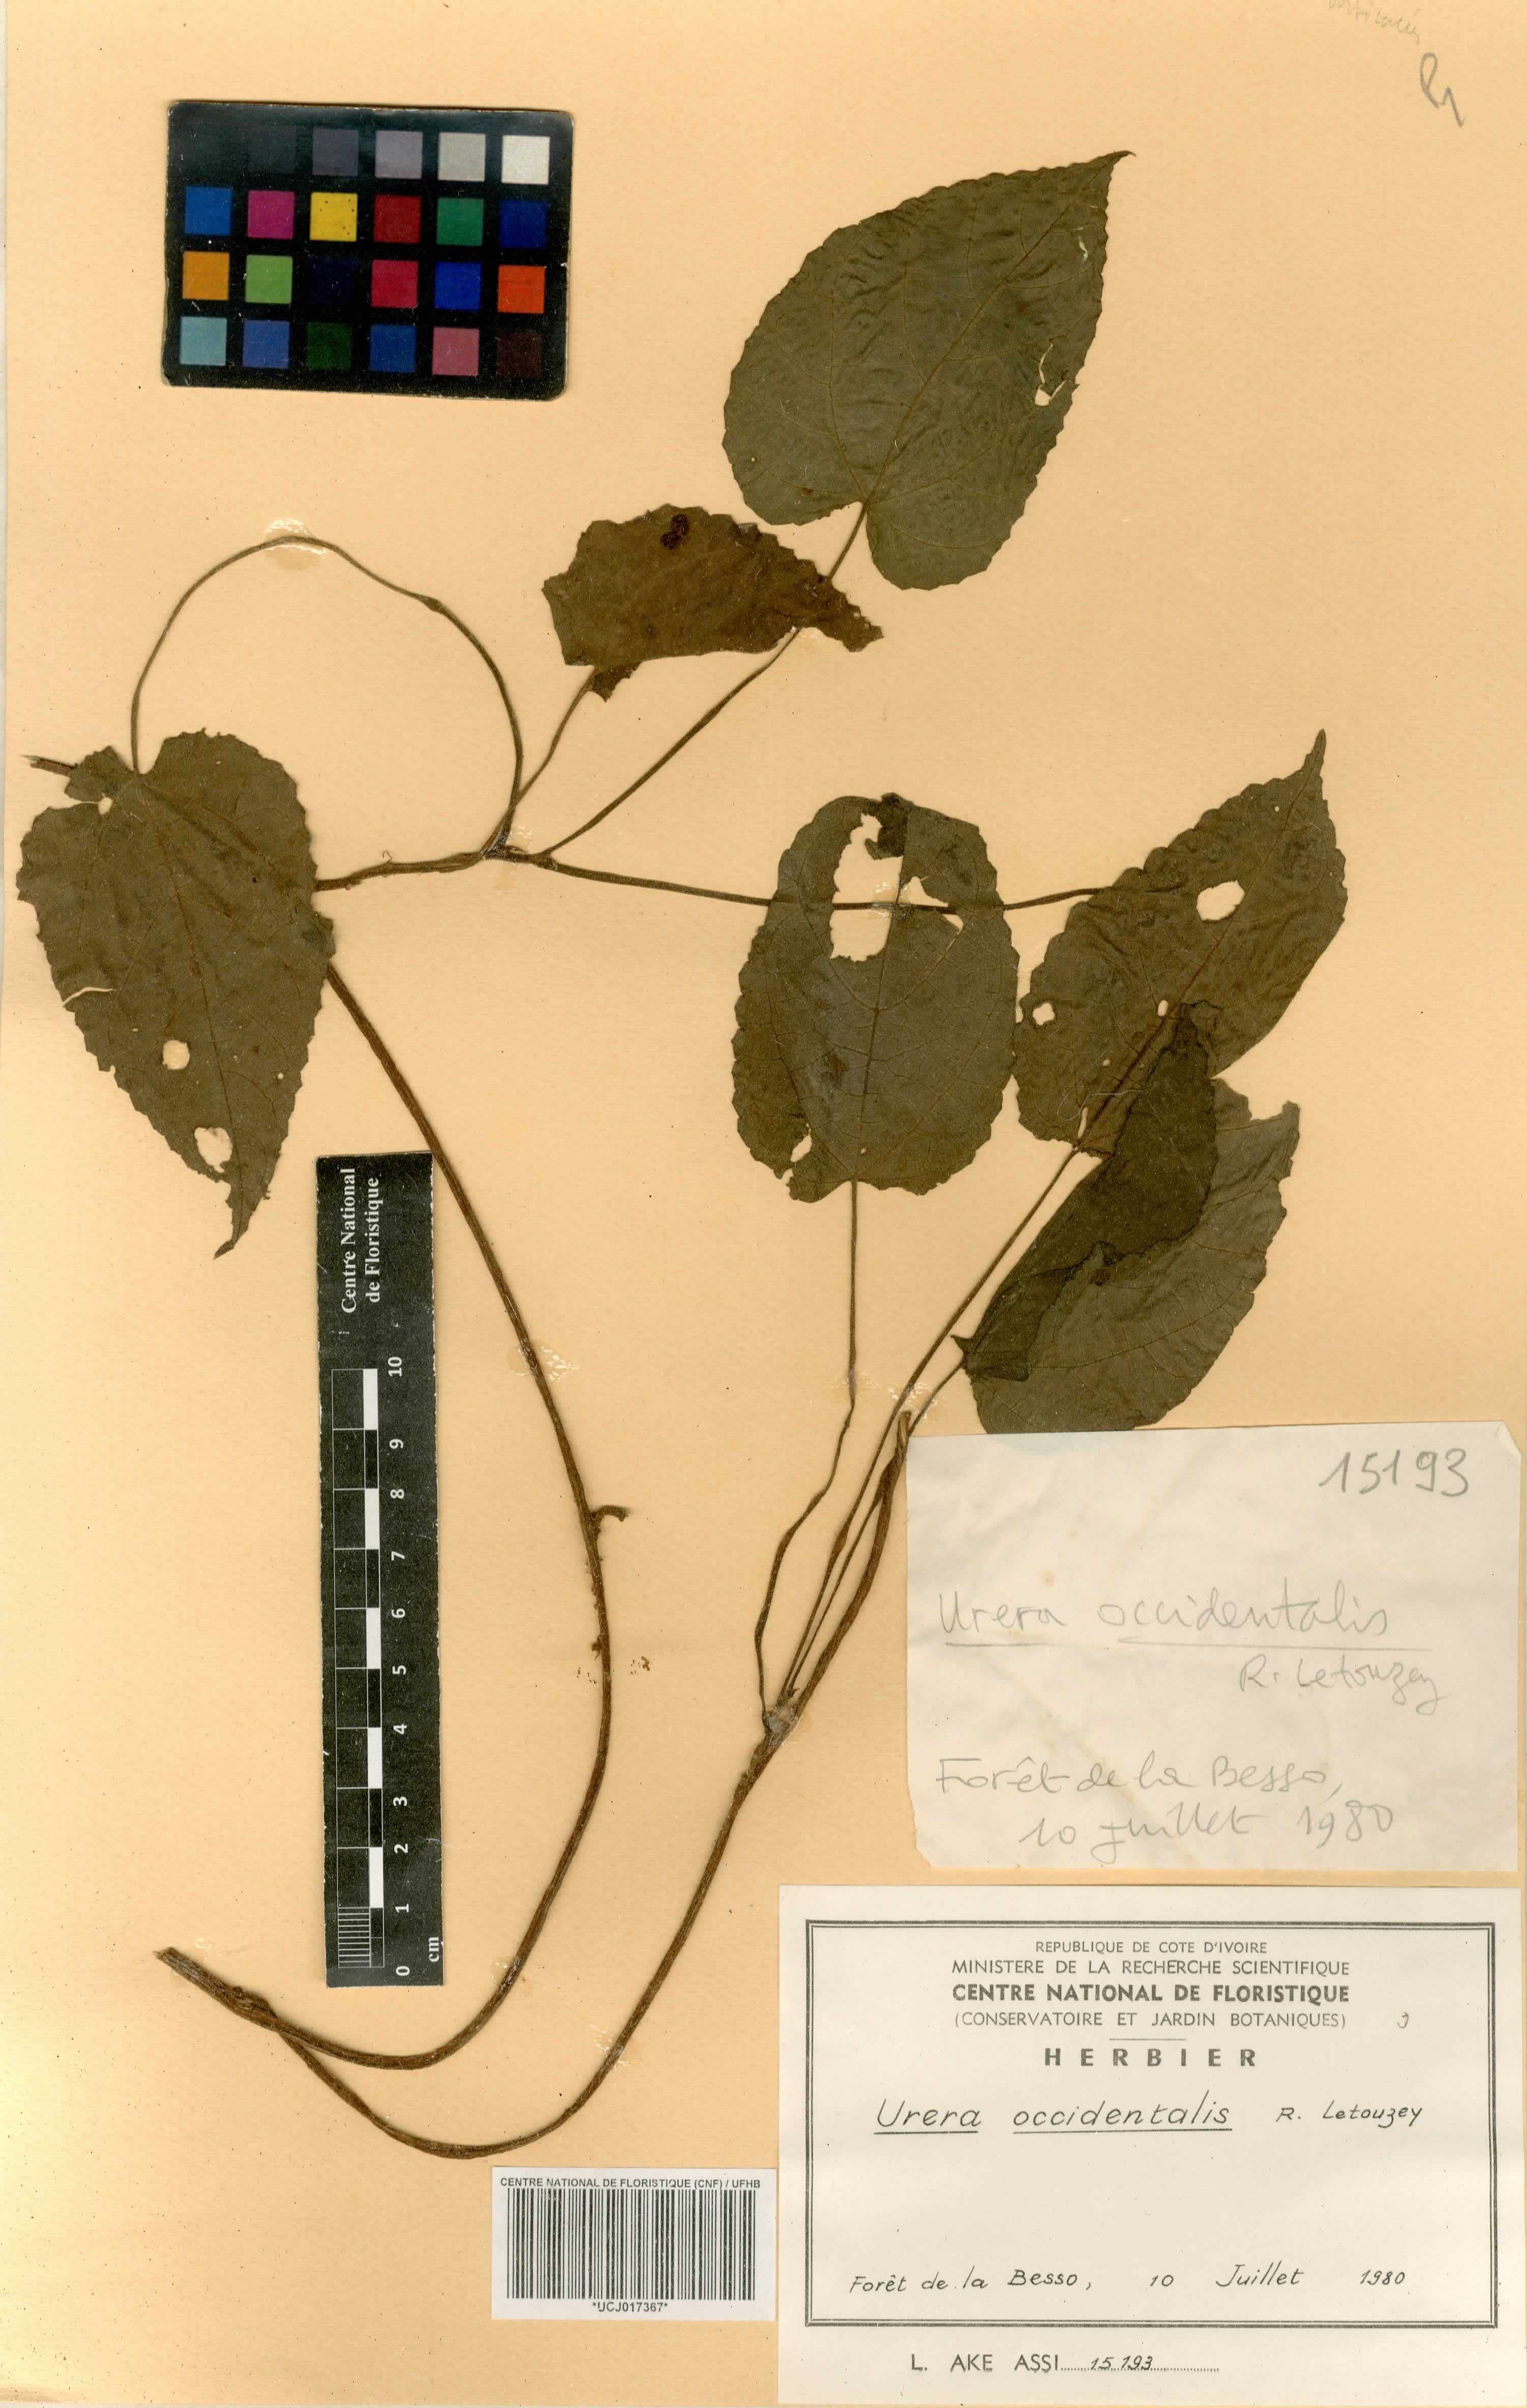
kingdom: Plantae
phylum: Tracheophyta
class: Magnoliopsida
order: Rosales
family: Urticaceae
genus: Scepocarpus
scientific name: Scepocarpus keayi
